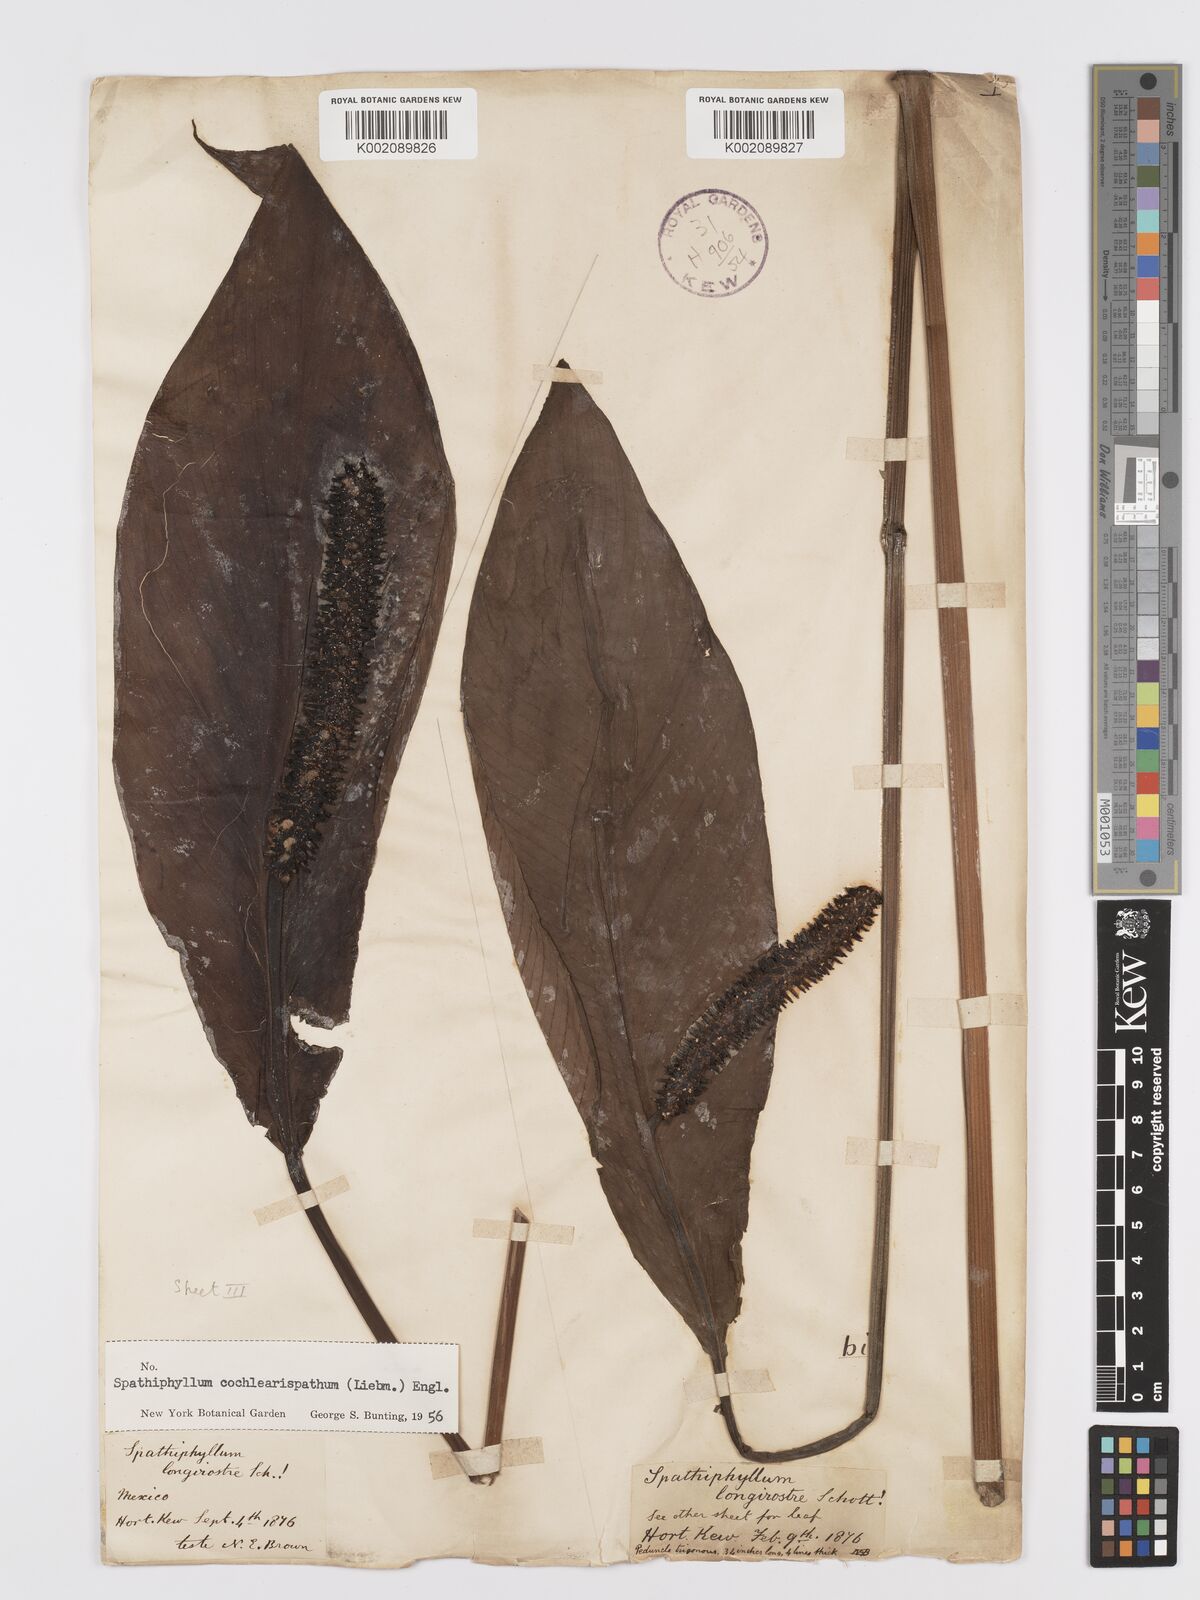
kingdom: Plantae
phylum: Tracheophyta
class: Liliopsida
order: Alismatales
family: Araceae
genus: Spathiphyllum
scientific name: Spathiphyllum cochlearispathum
